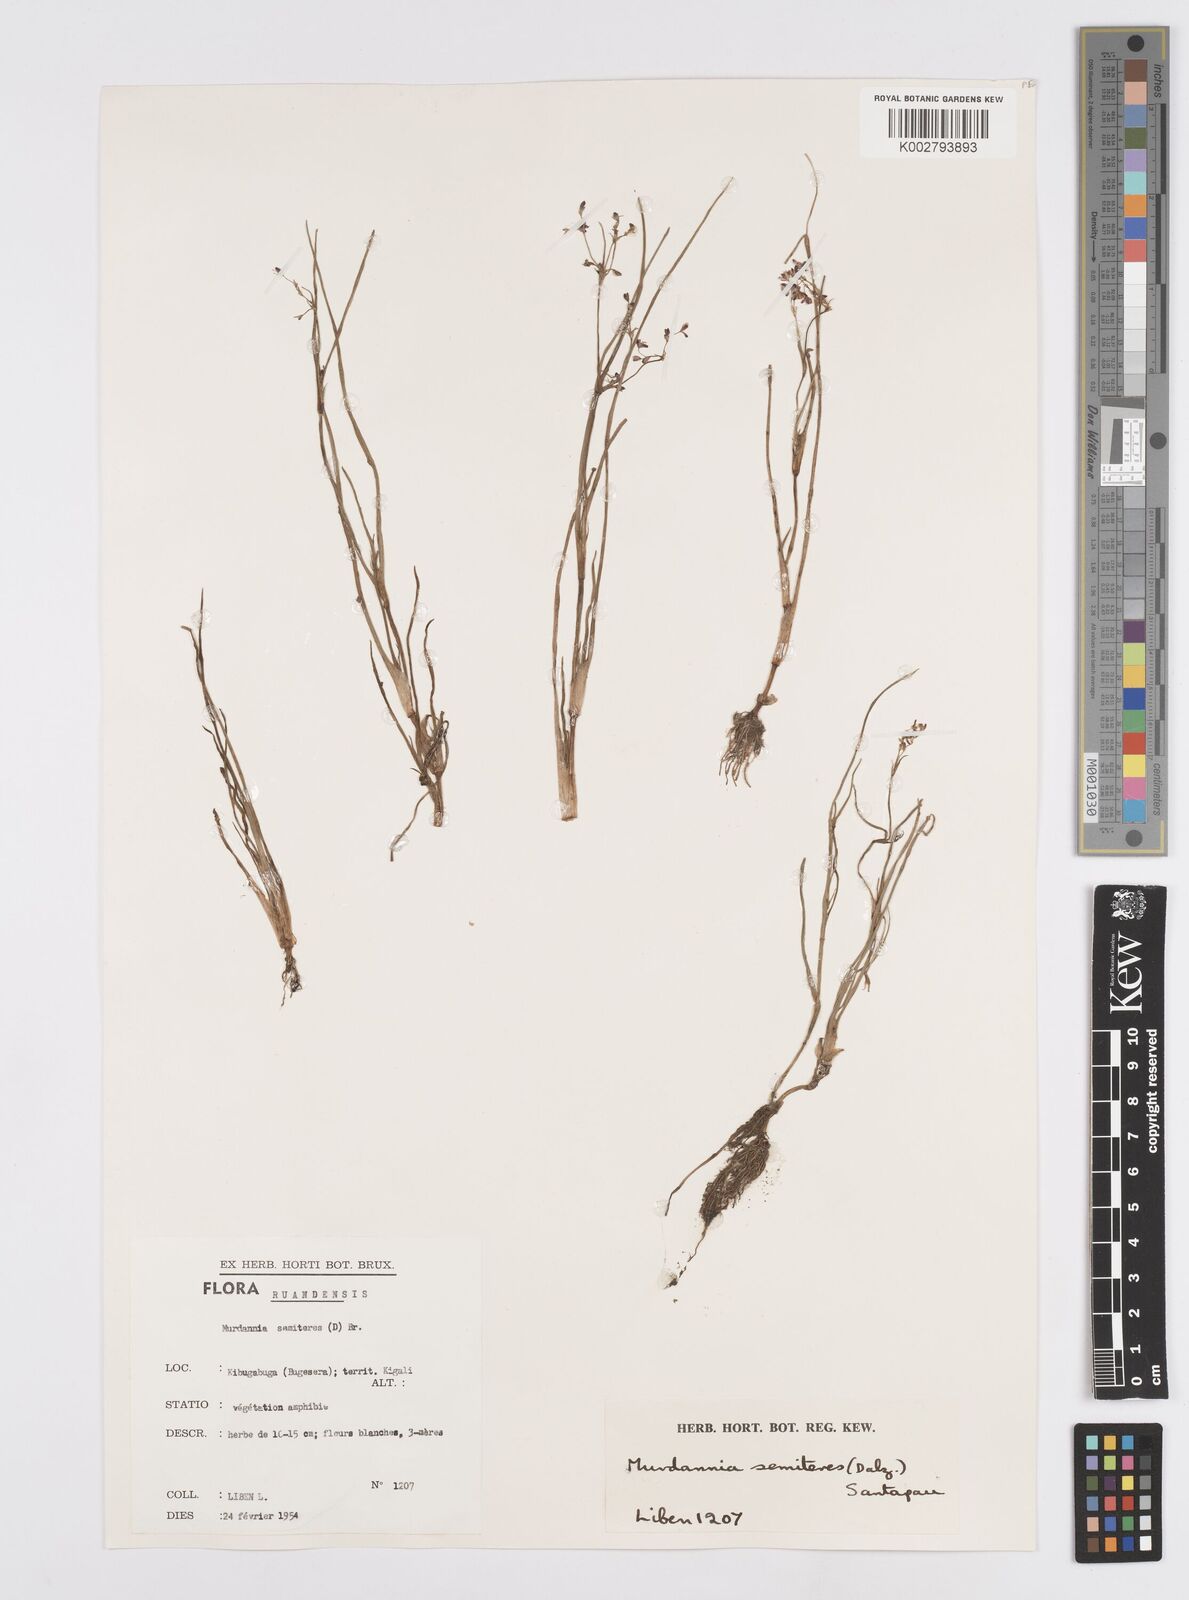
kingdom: Plantae
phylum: Tracheophyta
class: Liliopsida
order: Commelinales
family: Commelinaceae
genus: Murdannia
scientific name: Murdannia semiteres
